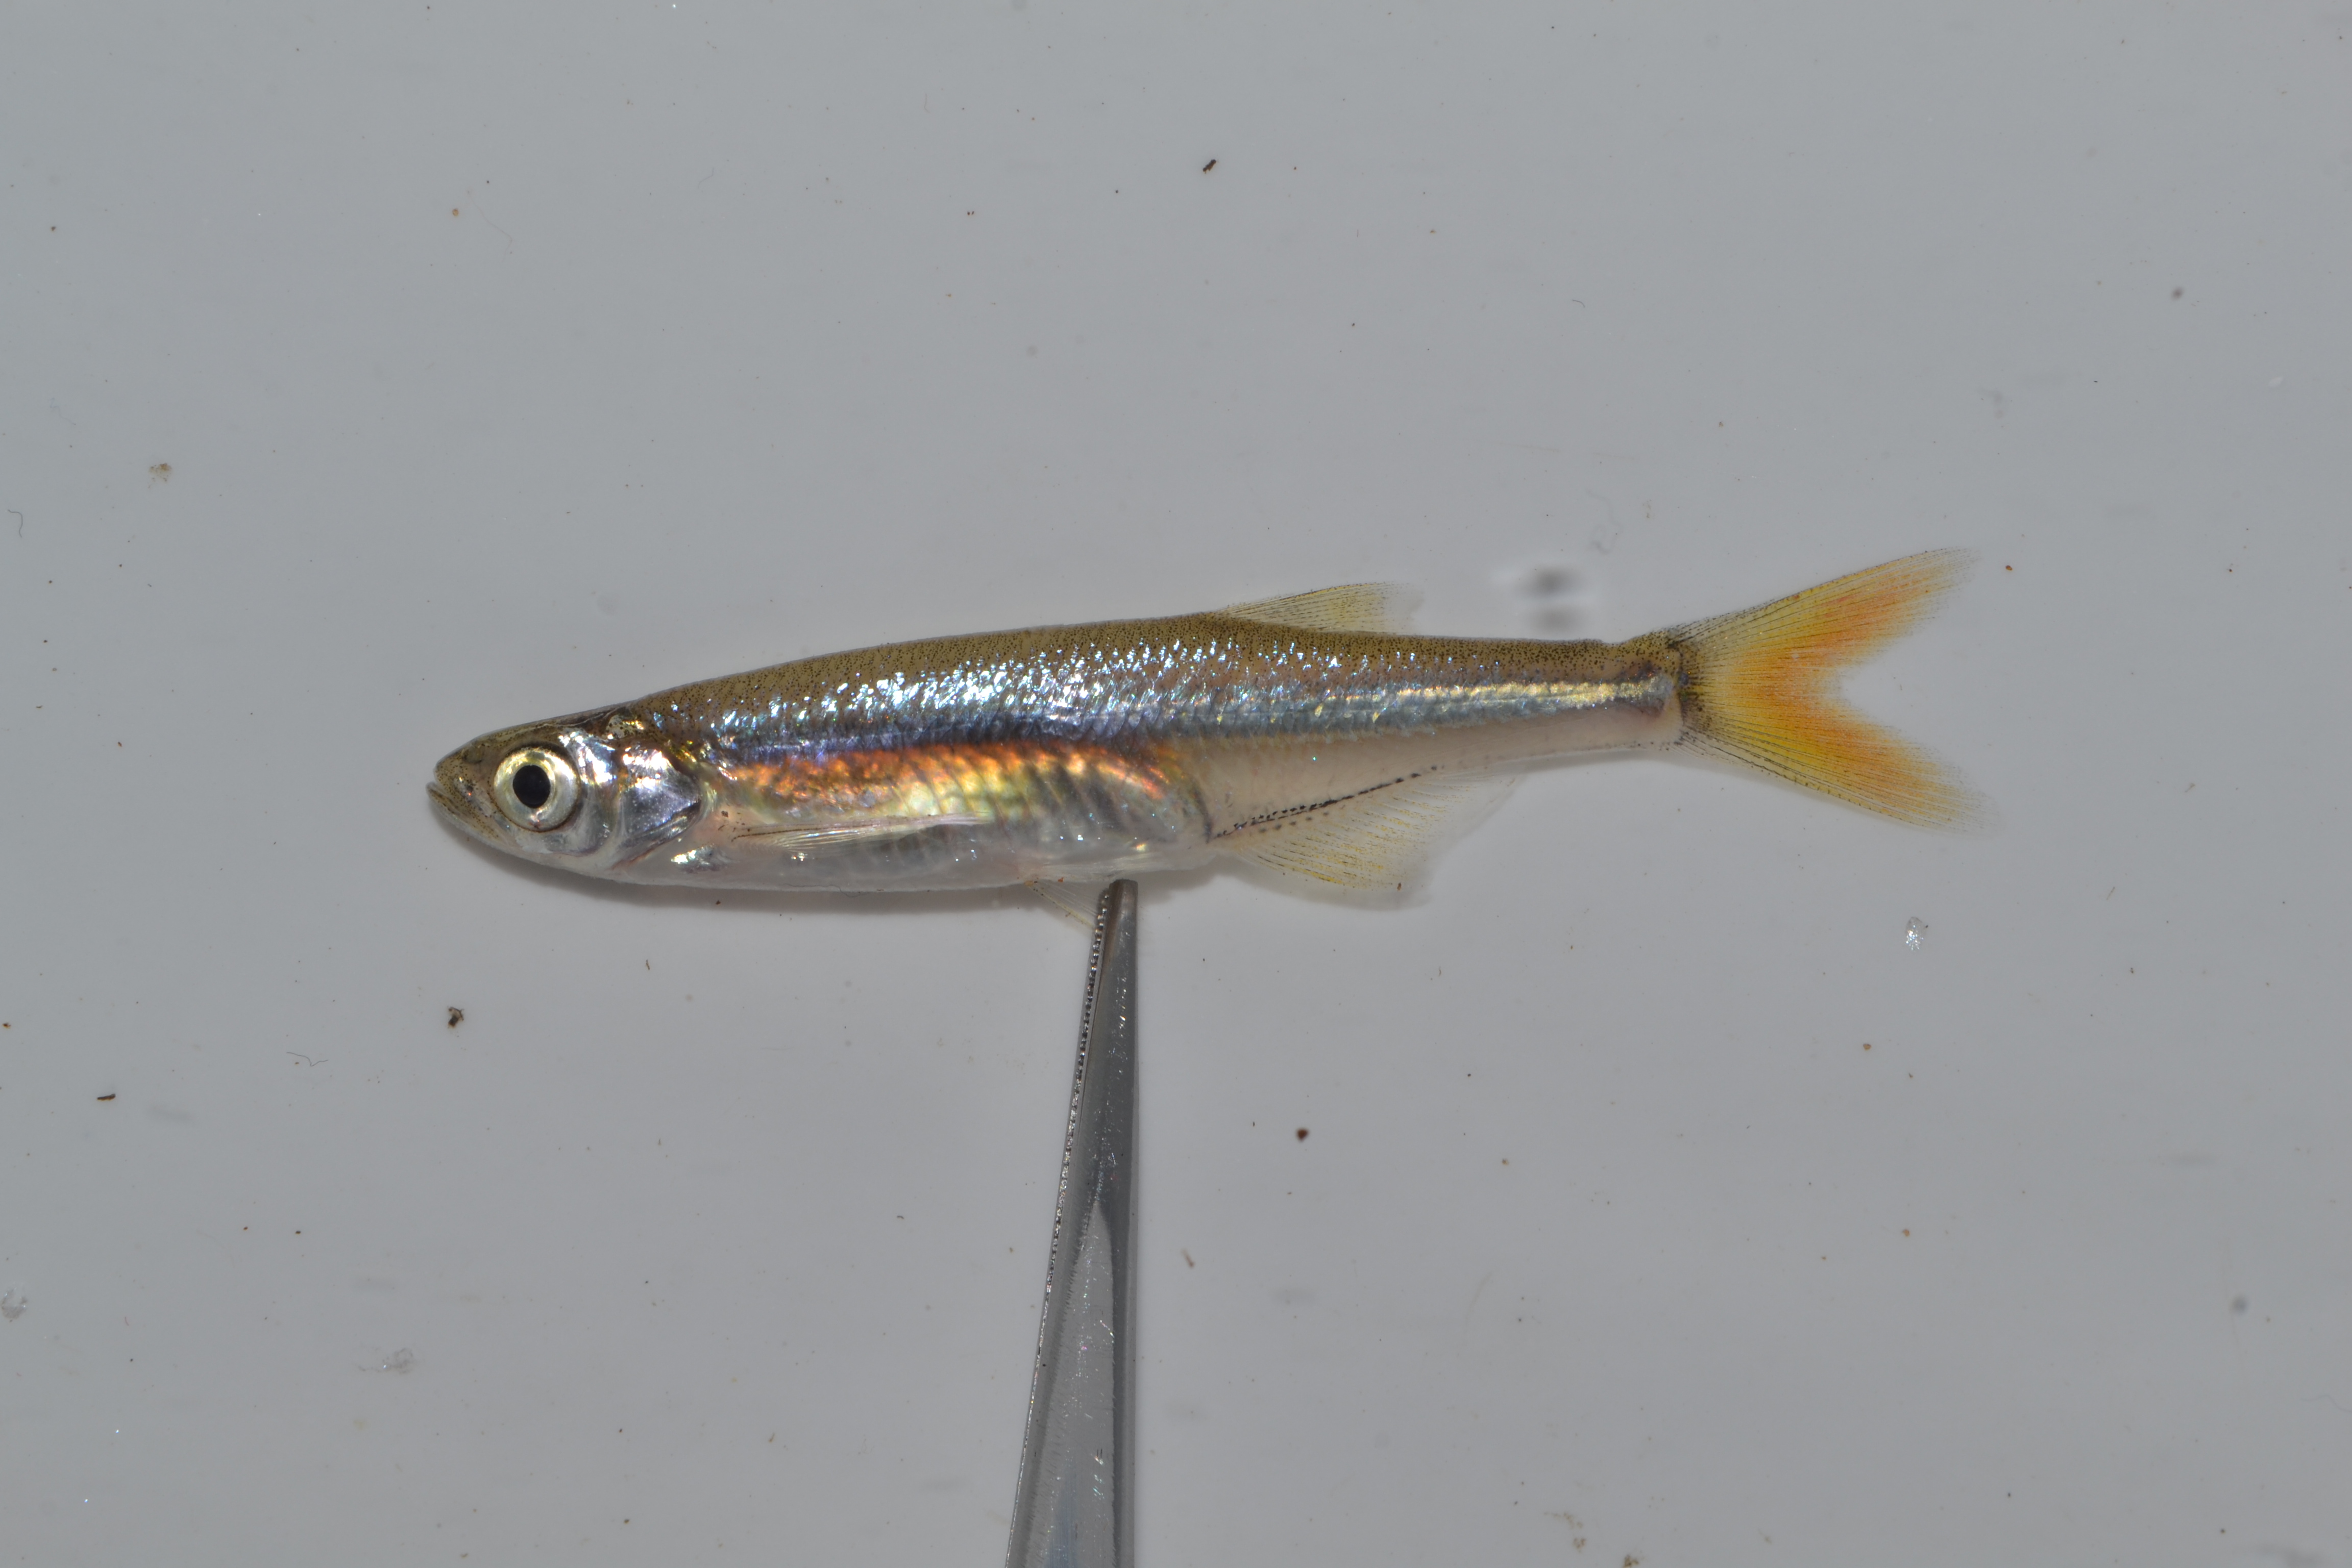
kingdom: Animalia
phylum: Chordata
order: Cypriniformes
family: Cyprinidae
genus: Engraulicypris
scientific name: Engraulicypris brevianalis
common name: River sardine
